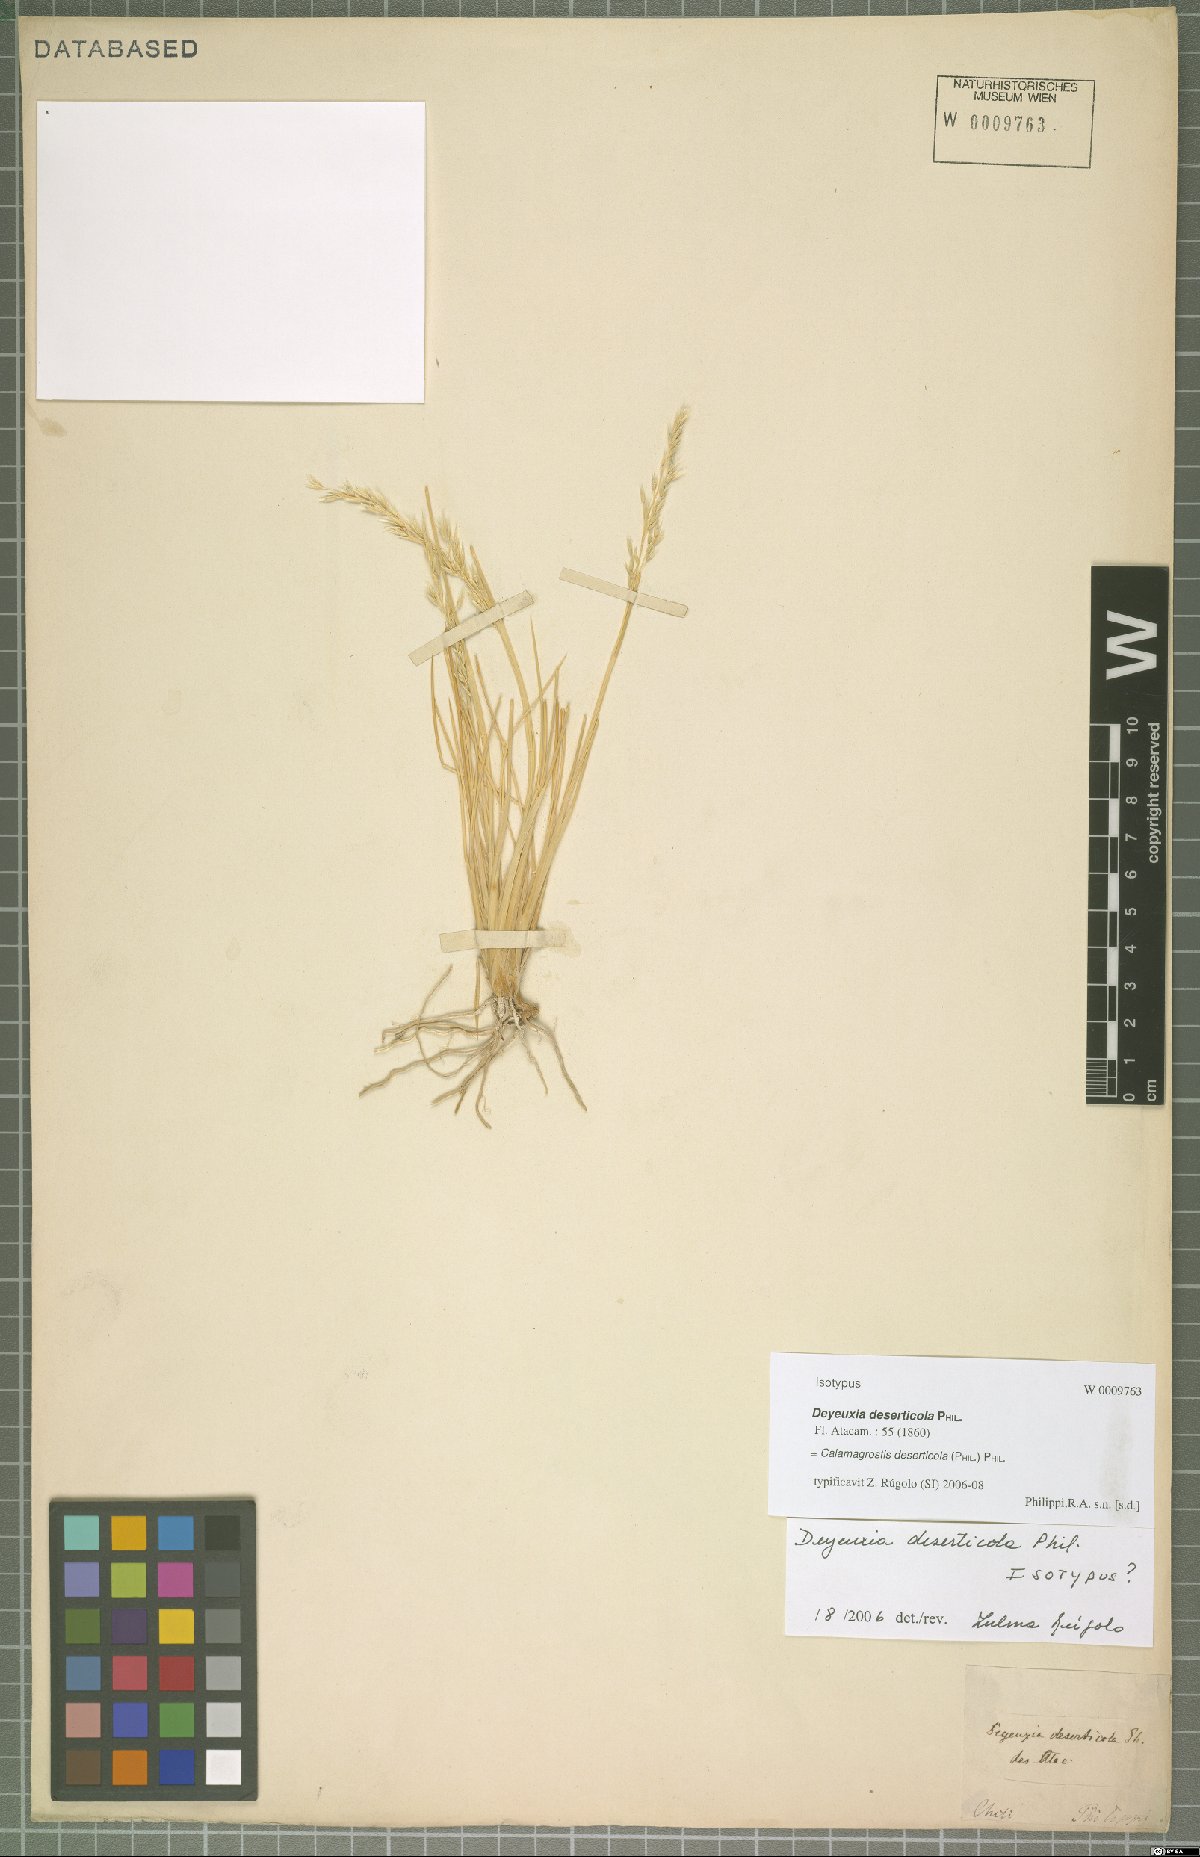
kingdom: Plantae
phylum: Tracheophyta
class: Liliopsida
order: Poales
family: Poaceae
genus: Cinnagrostis
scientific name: Cinnagrostis deserticola
